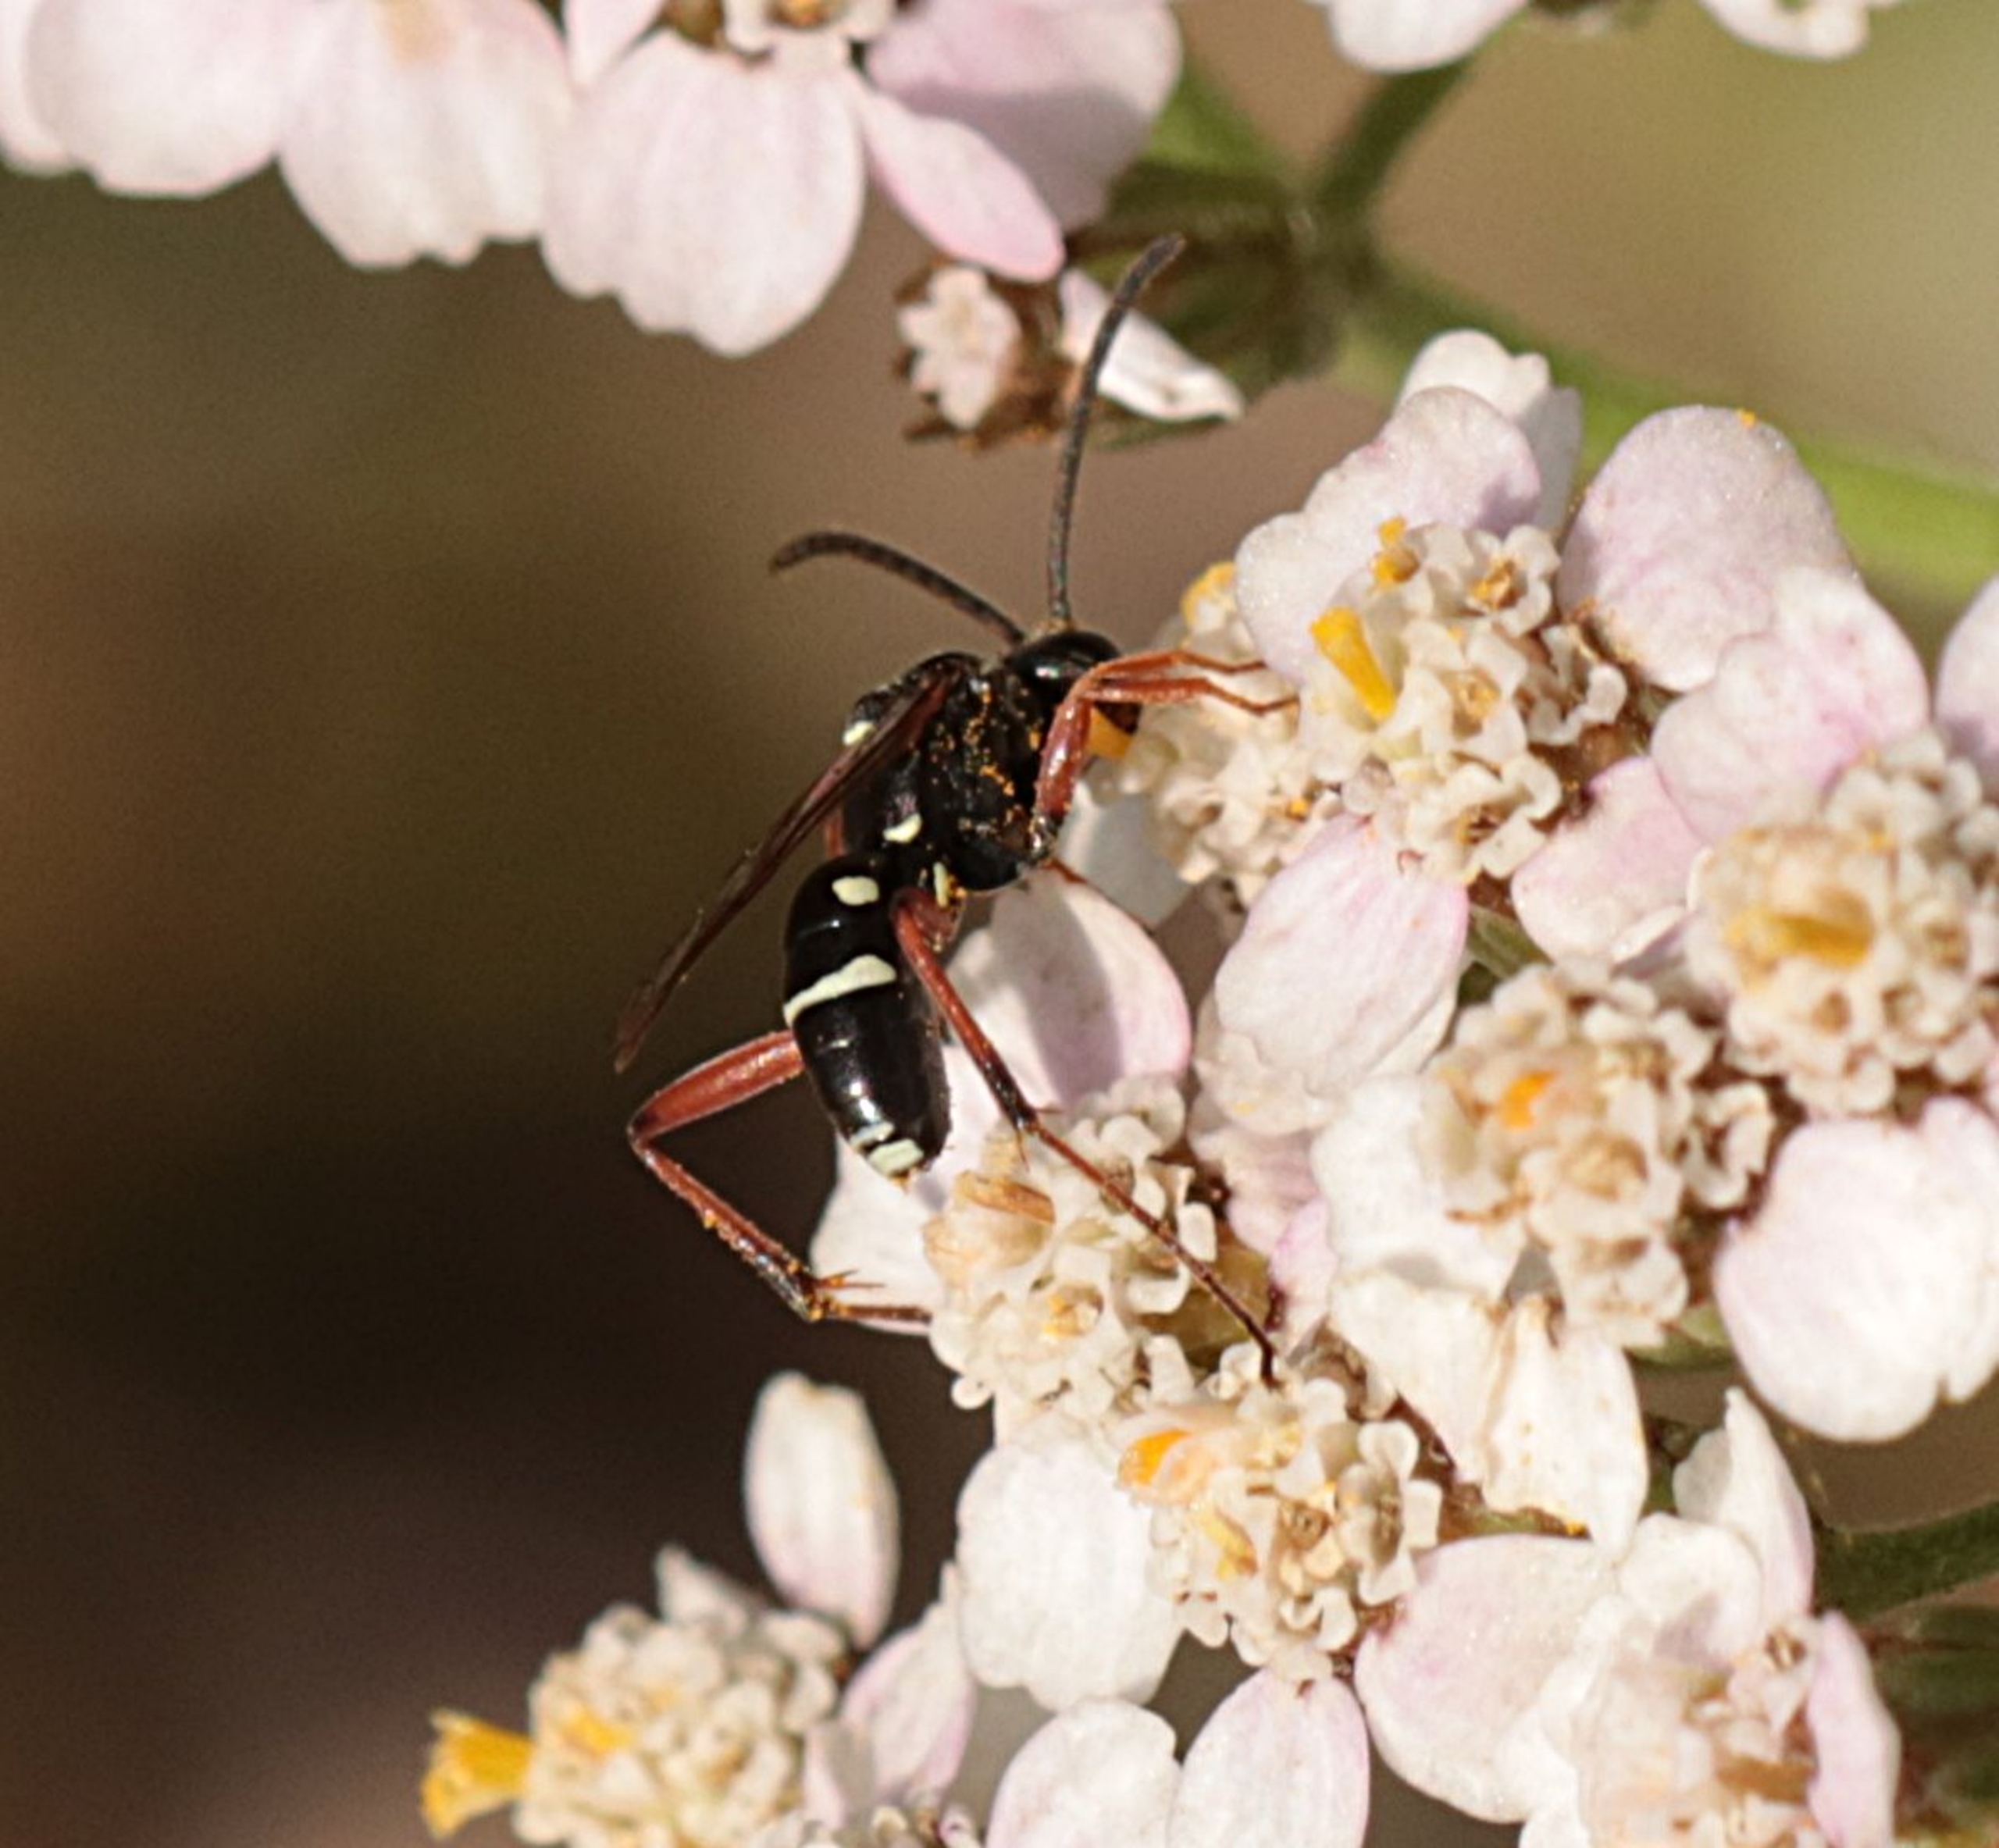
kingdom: Animalia
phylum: Arthropoda
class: Insecta
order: Hymenoptera
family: Pompilidae
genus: Ceropales
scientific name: Ceropales maculata
